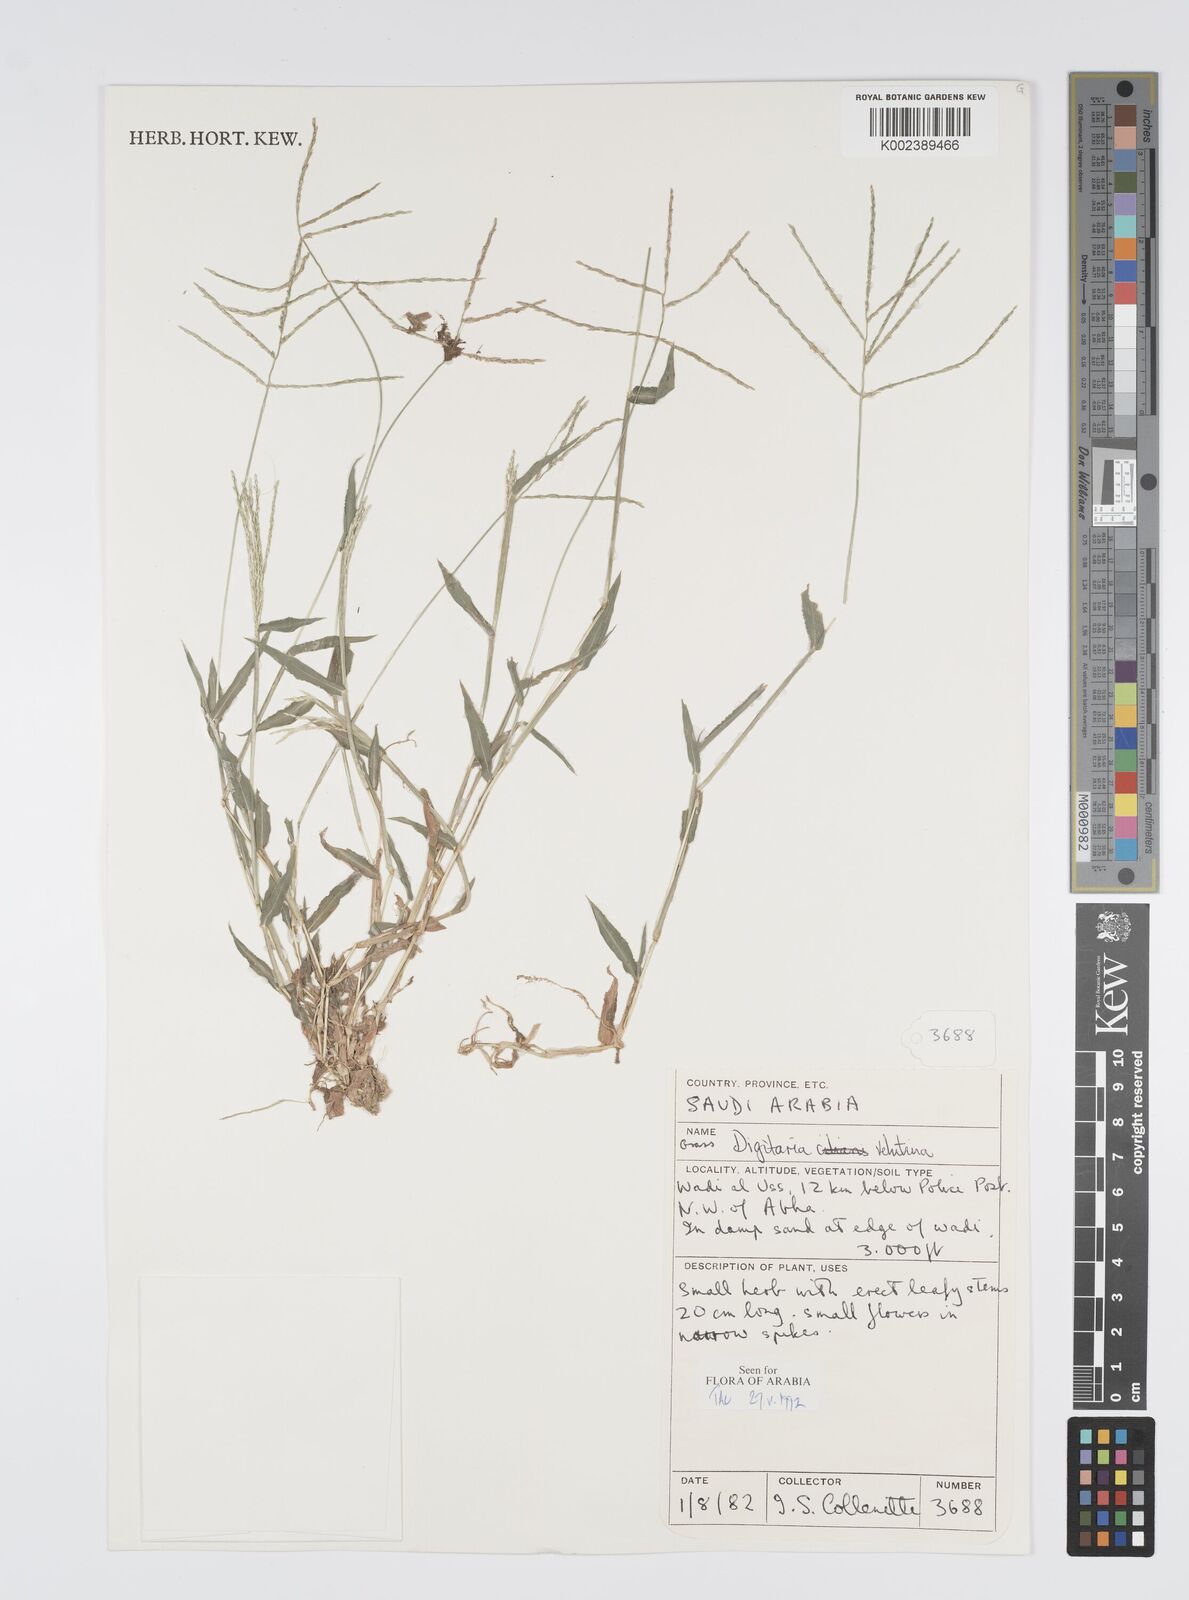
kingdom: Plantae
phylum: Tracheophyta
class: Liliopsida
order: Poales
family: Poaceae
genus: Digitaria
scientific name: Digitaria spec
